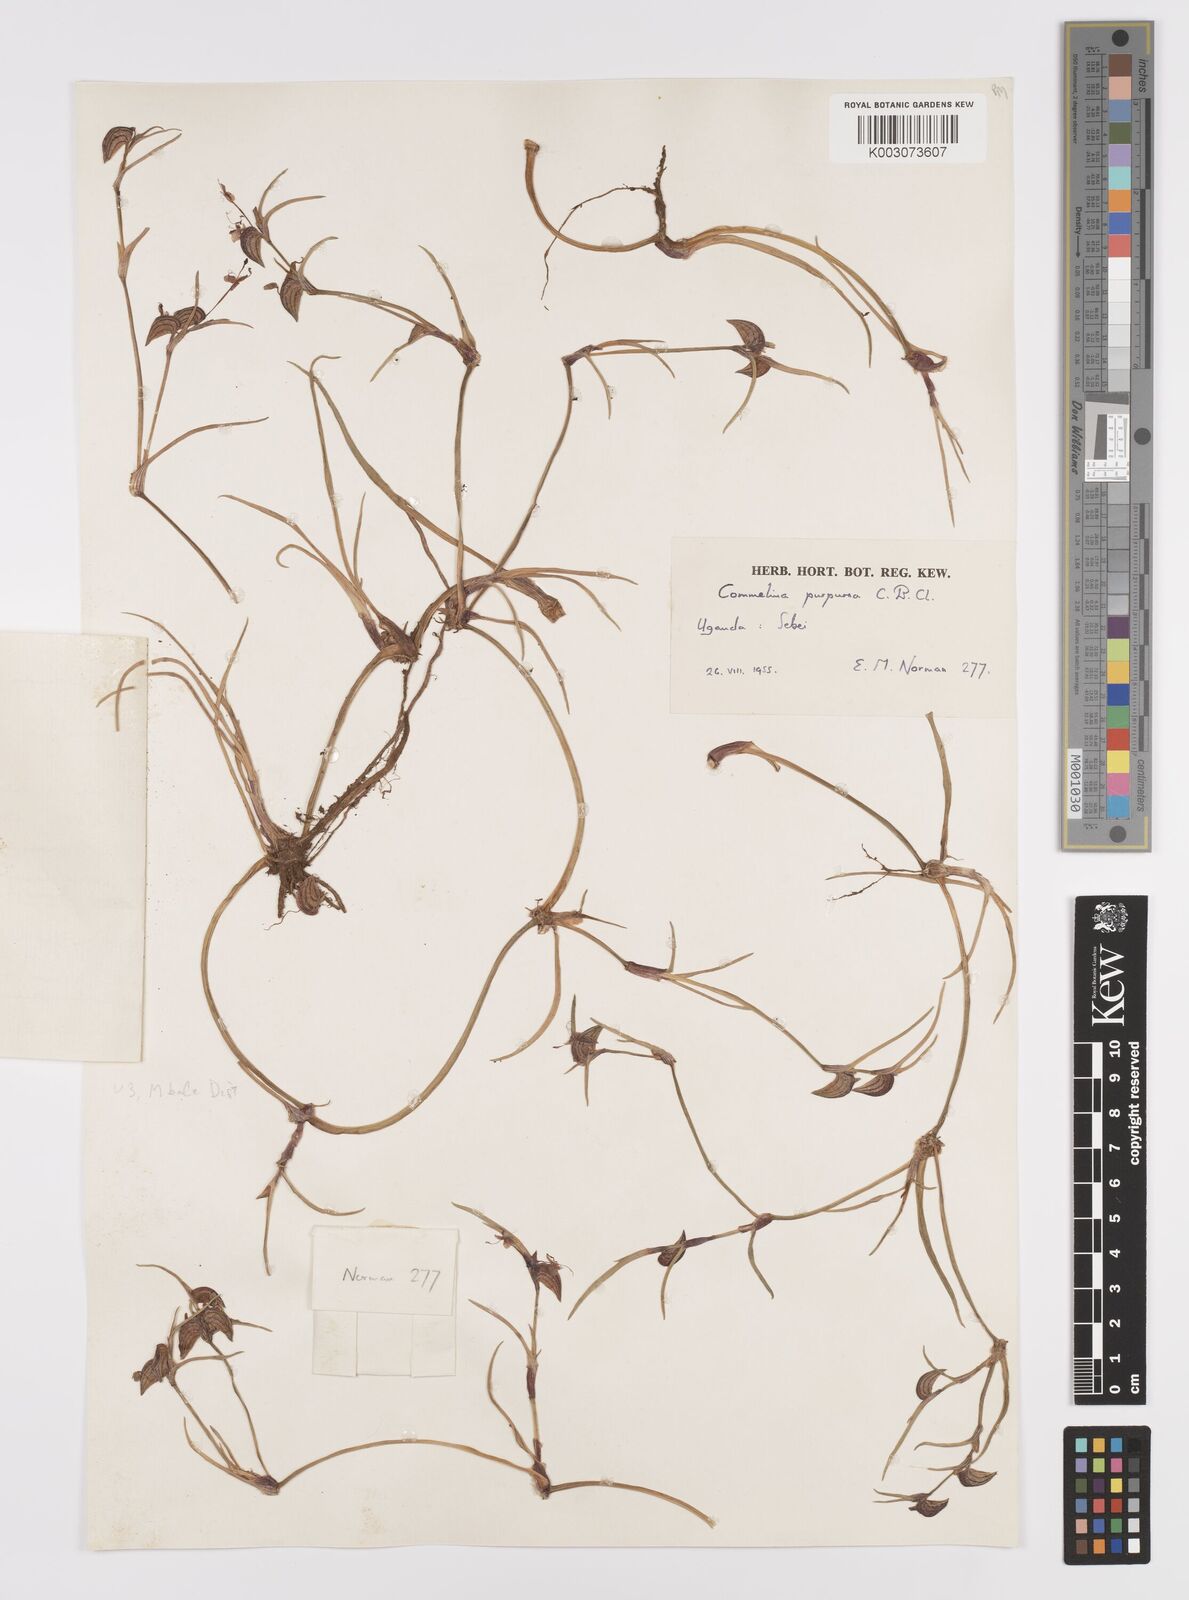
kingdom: Plantae
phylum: Tracheophyta
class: Liliopsida
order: Commelinales
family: Commelinaceae
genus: Commelina
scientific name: Commelina purpurea
